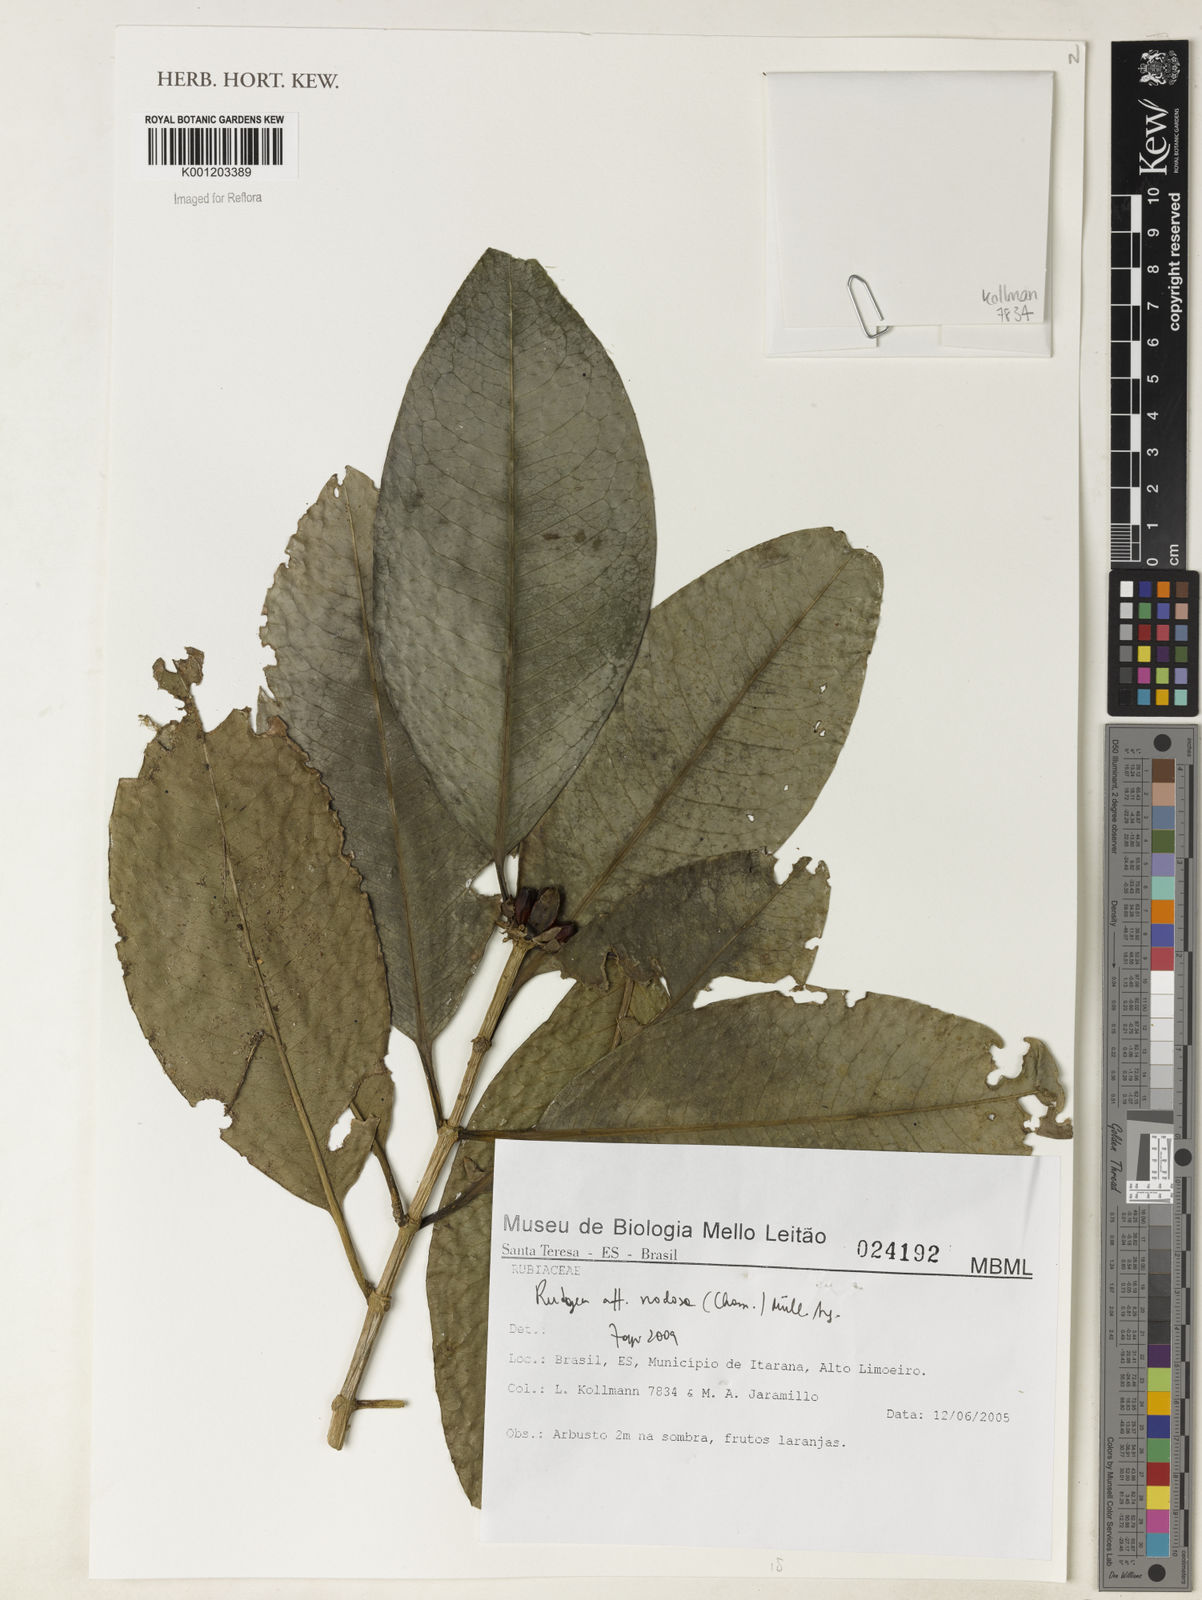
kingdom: Plantae
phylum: Tracheophyta
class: Magnoliopsida
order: Gentianales
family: Rubiaceae
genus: Rudgea
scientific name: Rudgea nodosa
